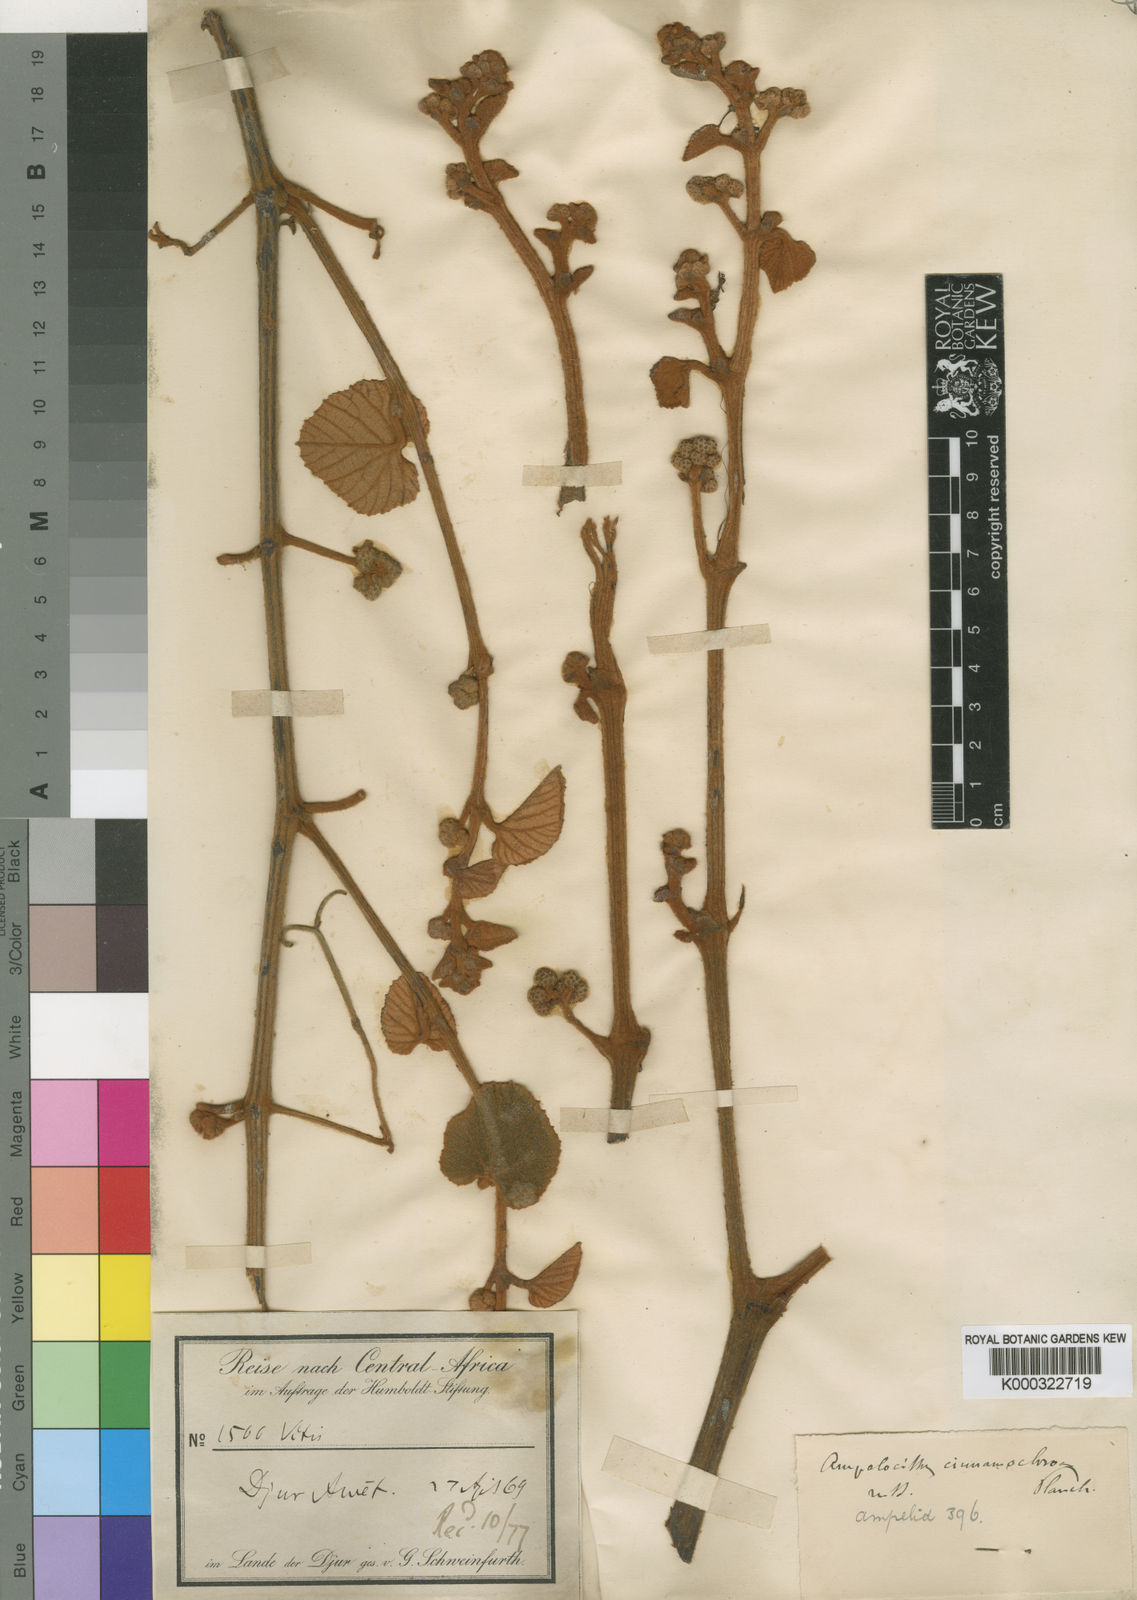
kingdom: Plantae
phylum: Tracheophyta
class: Magnoliopsida
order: Vitales
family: Vitaceae
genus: Ampelocissus
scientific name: Ampelocissus bombycina
